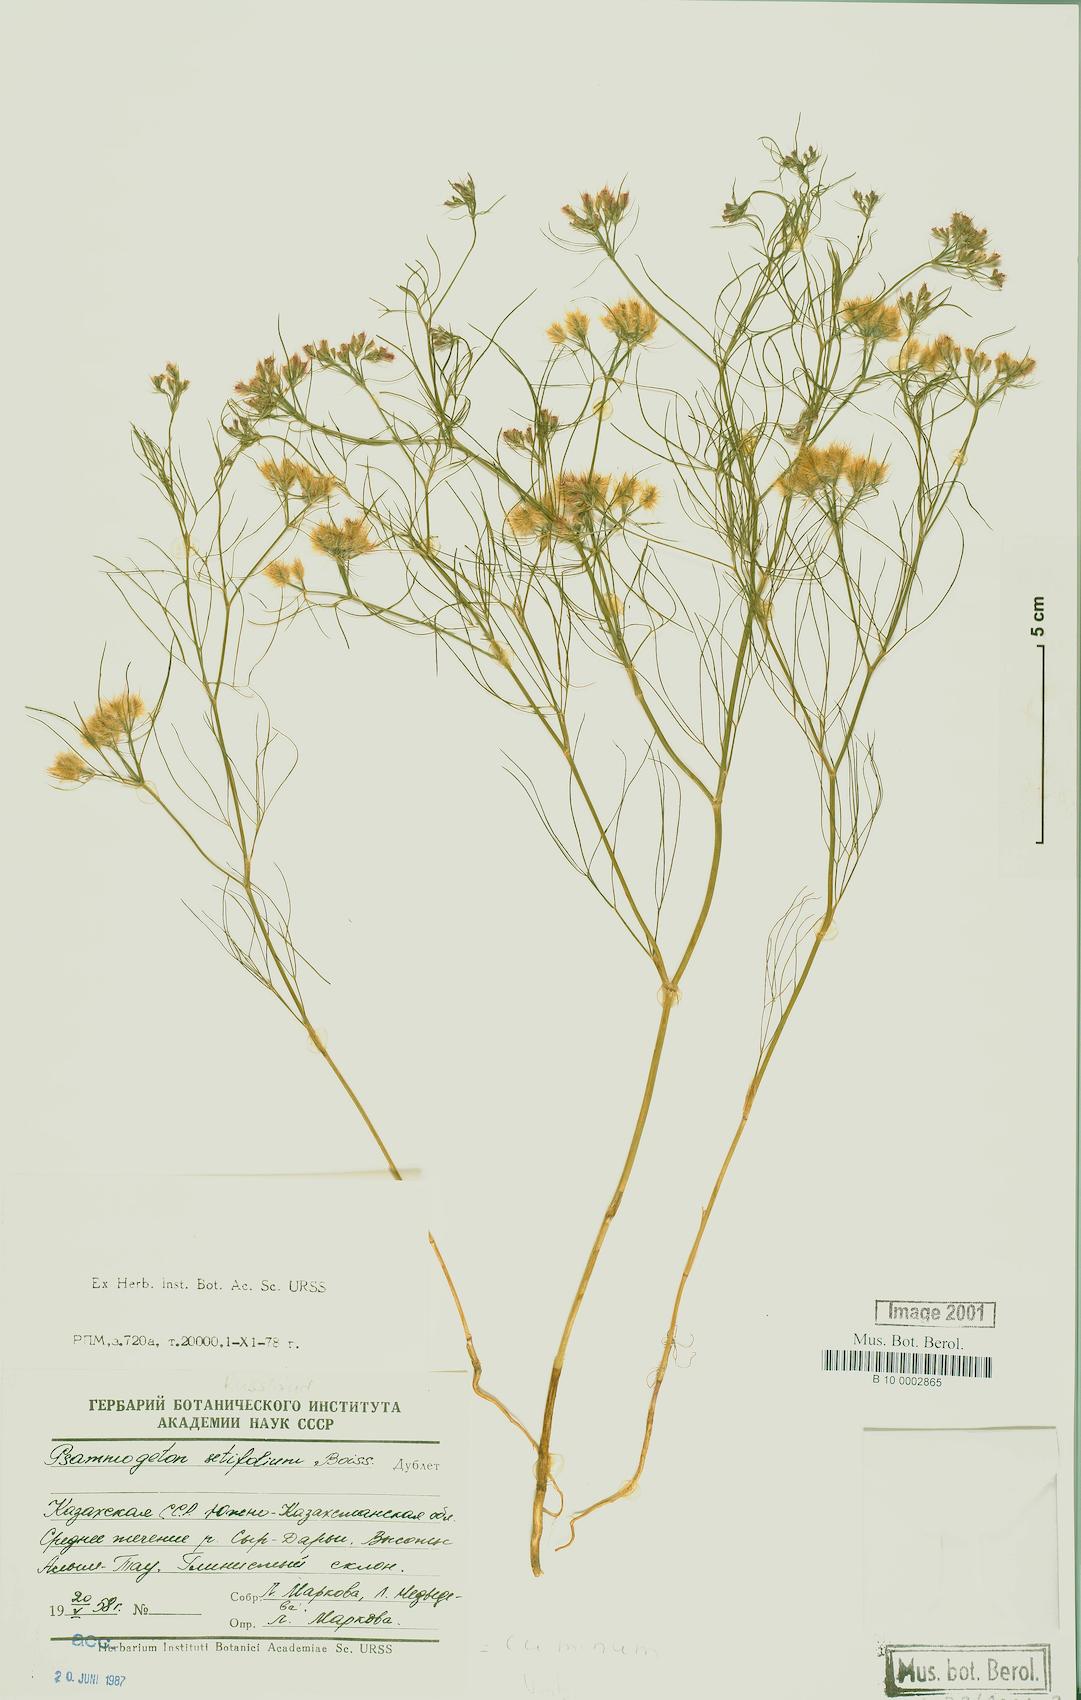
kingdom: Plantae
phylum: Tracheophyta
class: Magnoliopsida
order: Apiales
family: Apiaceae
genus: Daucus
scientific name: Daucus setifolius
